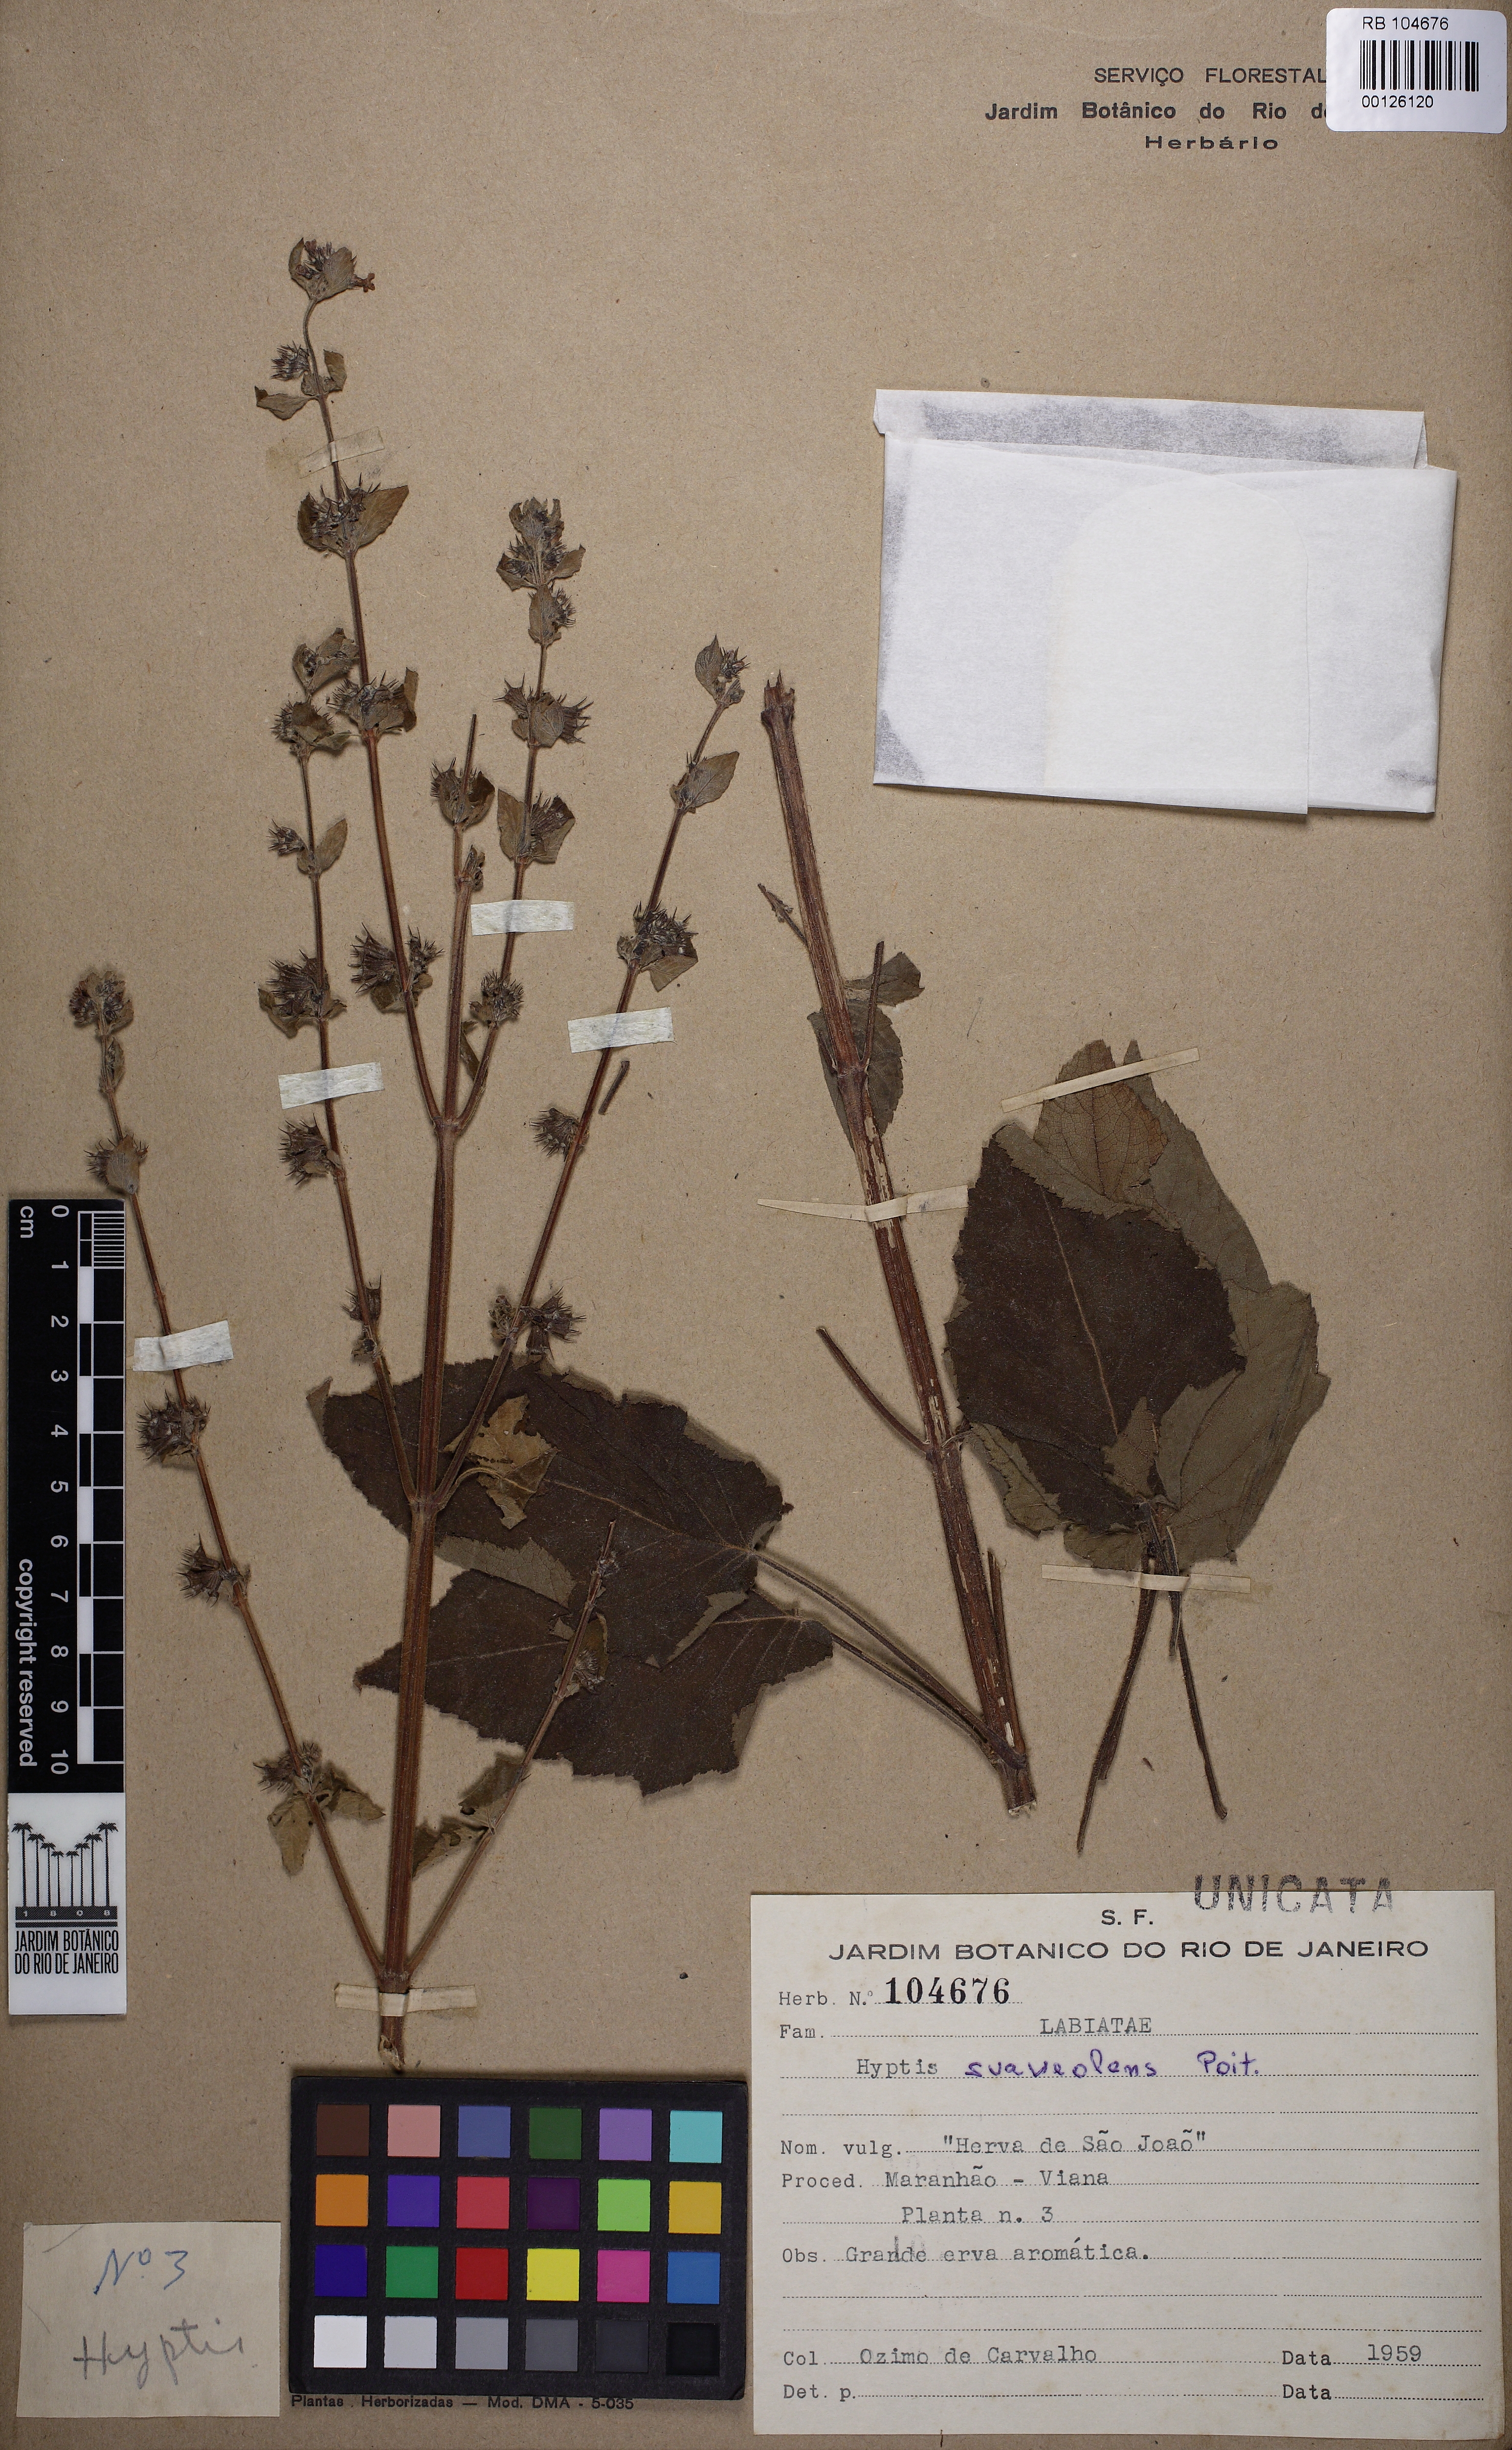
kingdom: Plantae
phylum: Tracheophyta
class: Magnoliopsida
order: Lamiales
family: Lamiaceae
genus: Mesosphaerum
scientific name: Mesosphaerum suaveolens
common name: Pignut
